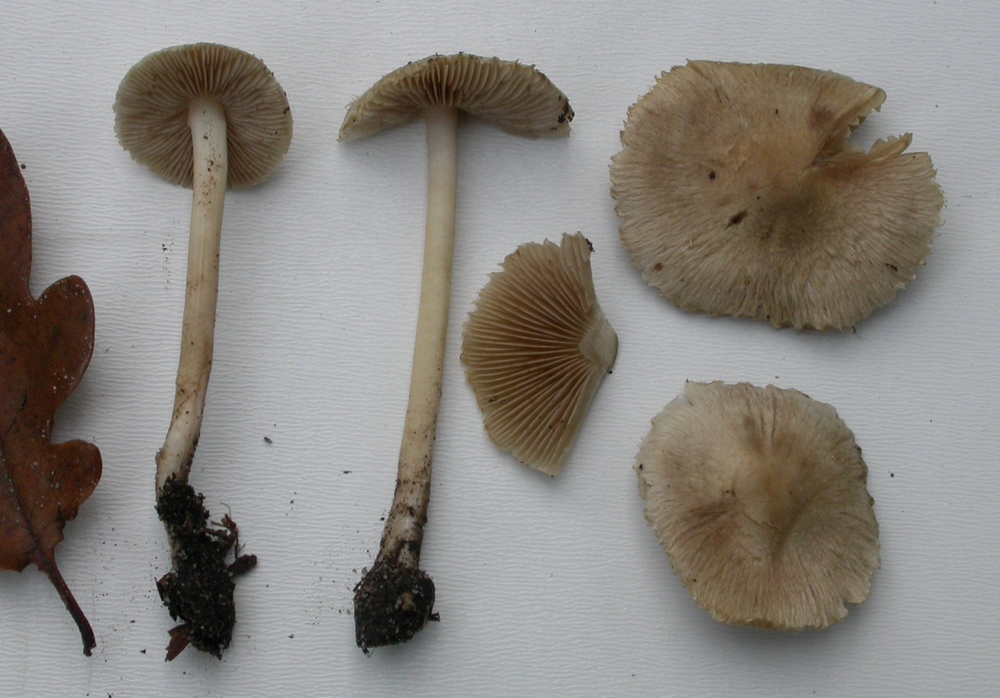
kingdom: Fungi
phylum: Basidiomycota
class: Agaricomycetes
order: Agaricales
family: Inocybaceae
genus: Inocybe
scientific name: Inocybe sindonia
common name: bleg trævlhat
